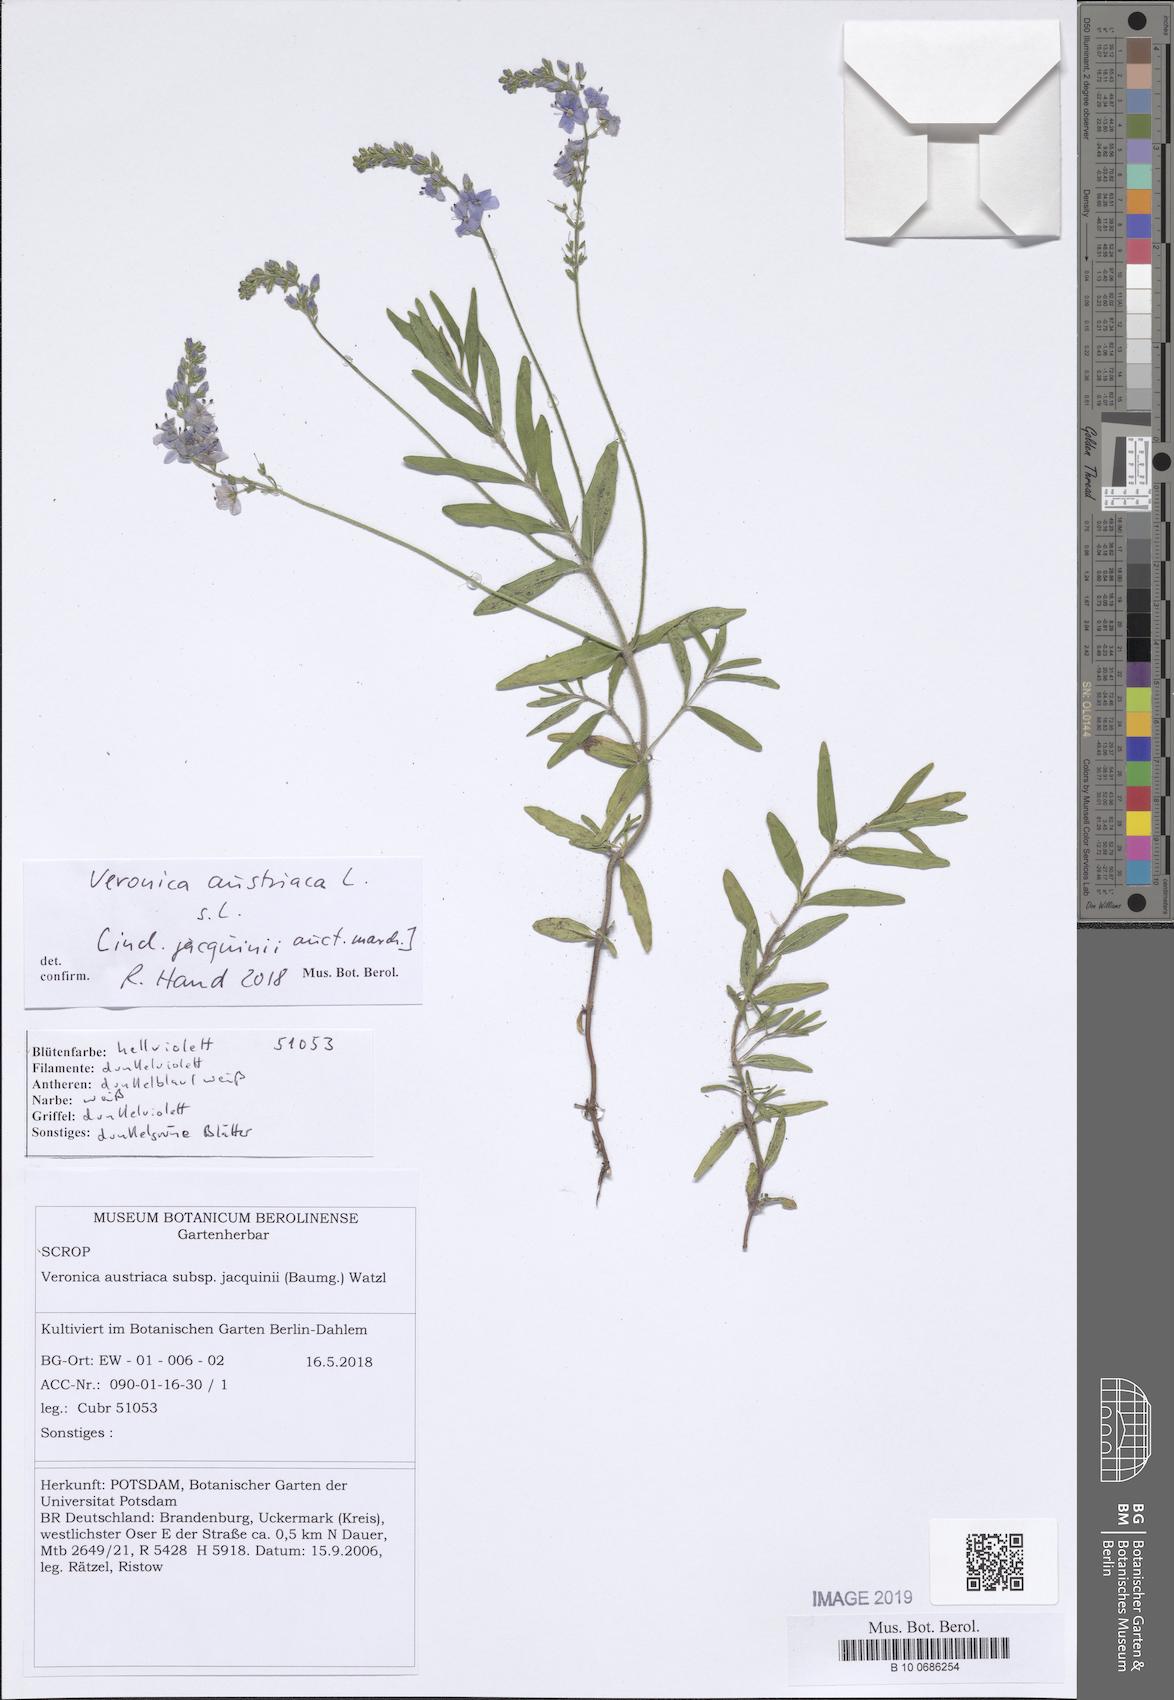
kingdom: Plantae
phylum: Tracheophyta
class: Magnoliopsida
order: Lamiales
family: Plantaginaceae
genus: Veronica
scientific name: Veronica austriaca
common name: Large speedwell
